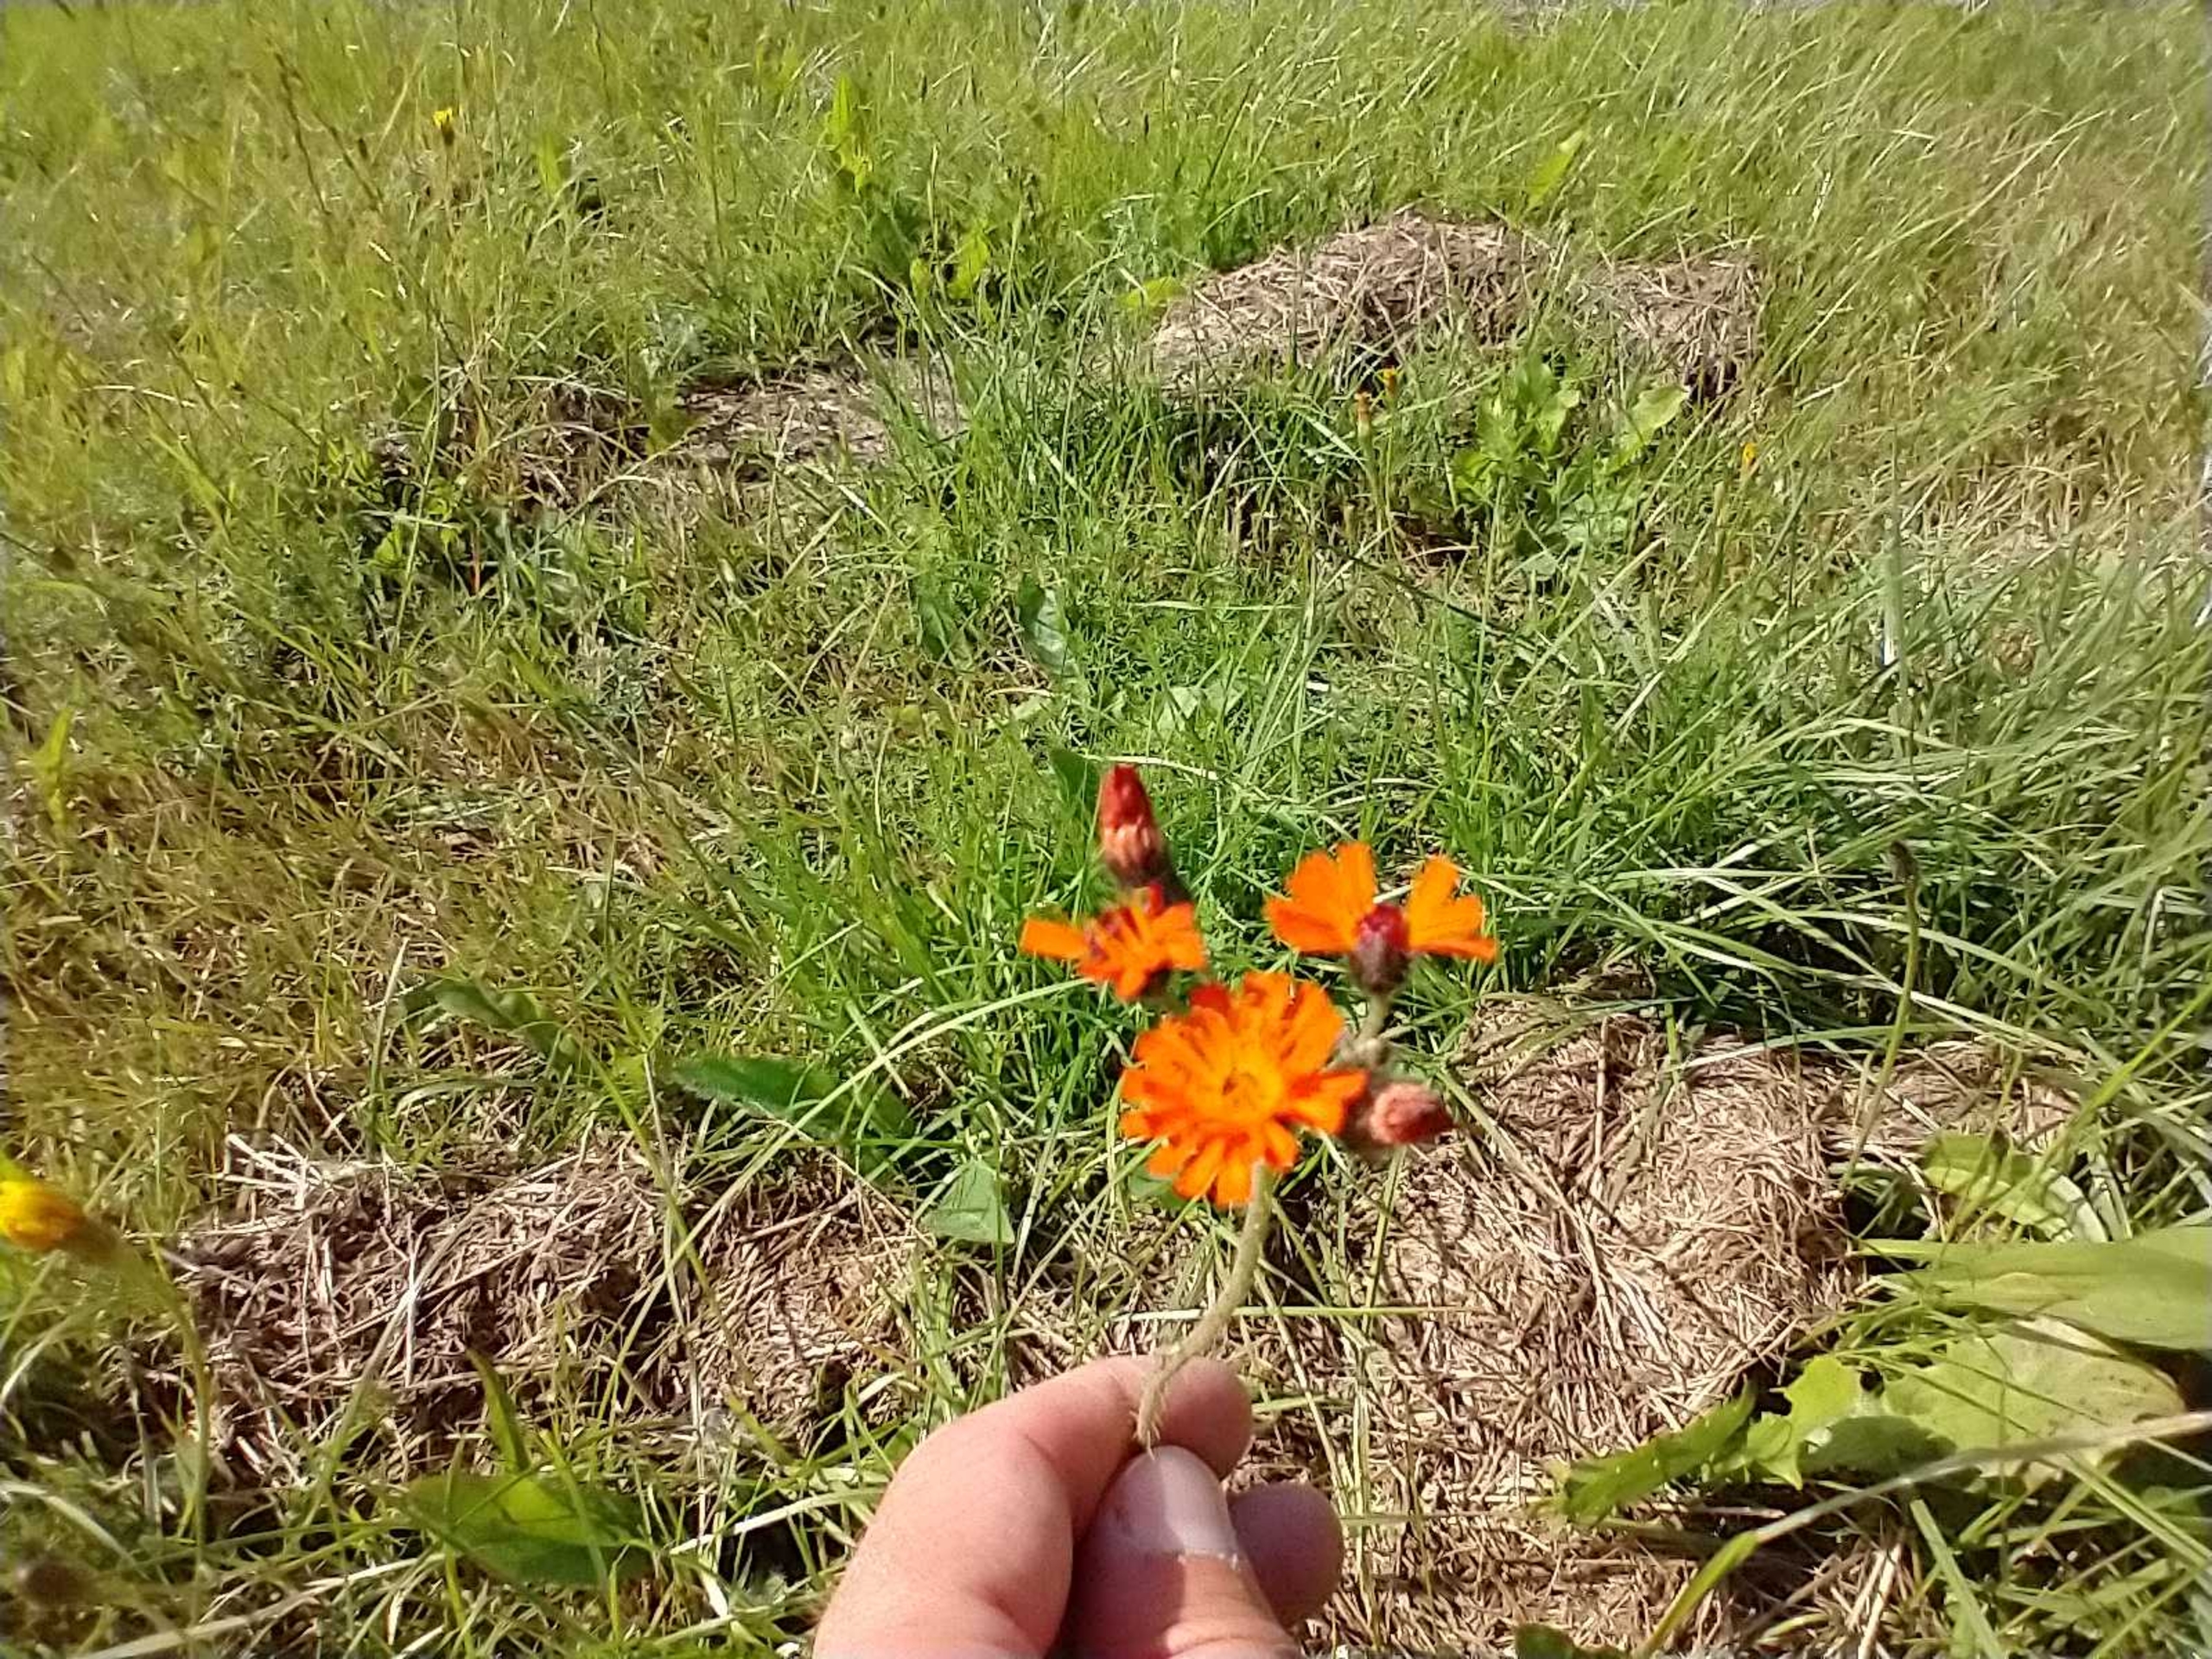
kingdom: Plantae
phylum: Tracheophyta
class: Magnoliopsida
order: Asterales
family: Asteraceae
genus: Pilosella
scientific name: Pilosella aurantiaca
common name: Pomerans-høgeurt
